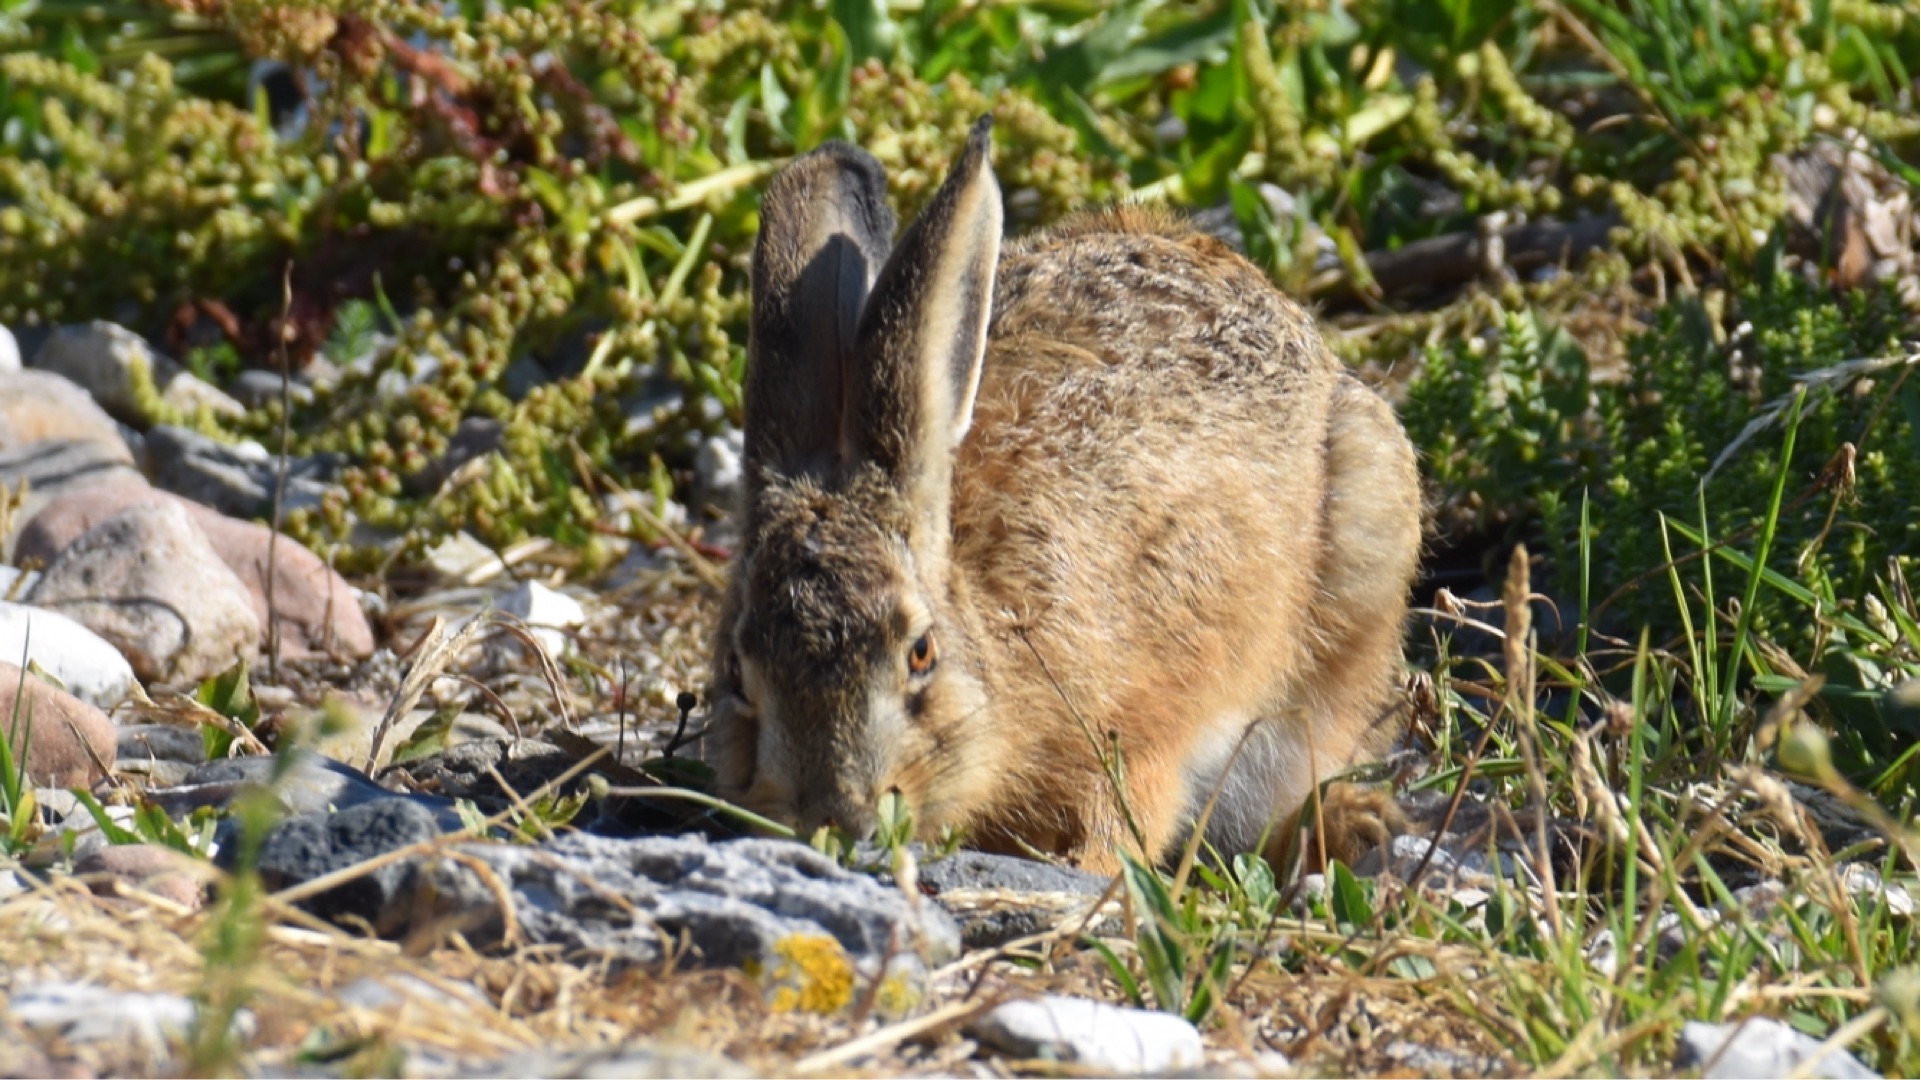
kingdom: Animalia
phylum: Chordata
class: Mammalia
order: Lagomorpha
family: Leporidae
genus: Lepus
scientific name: Lepus europaeus
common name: Hare
